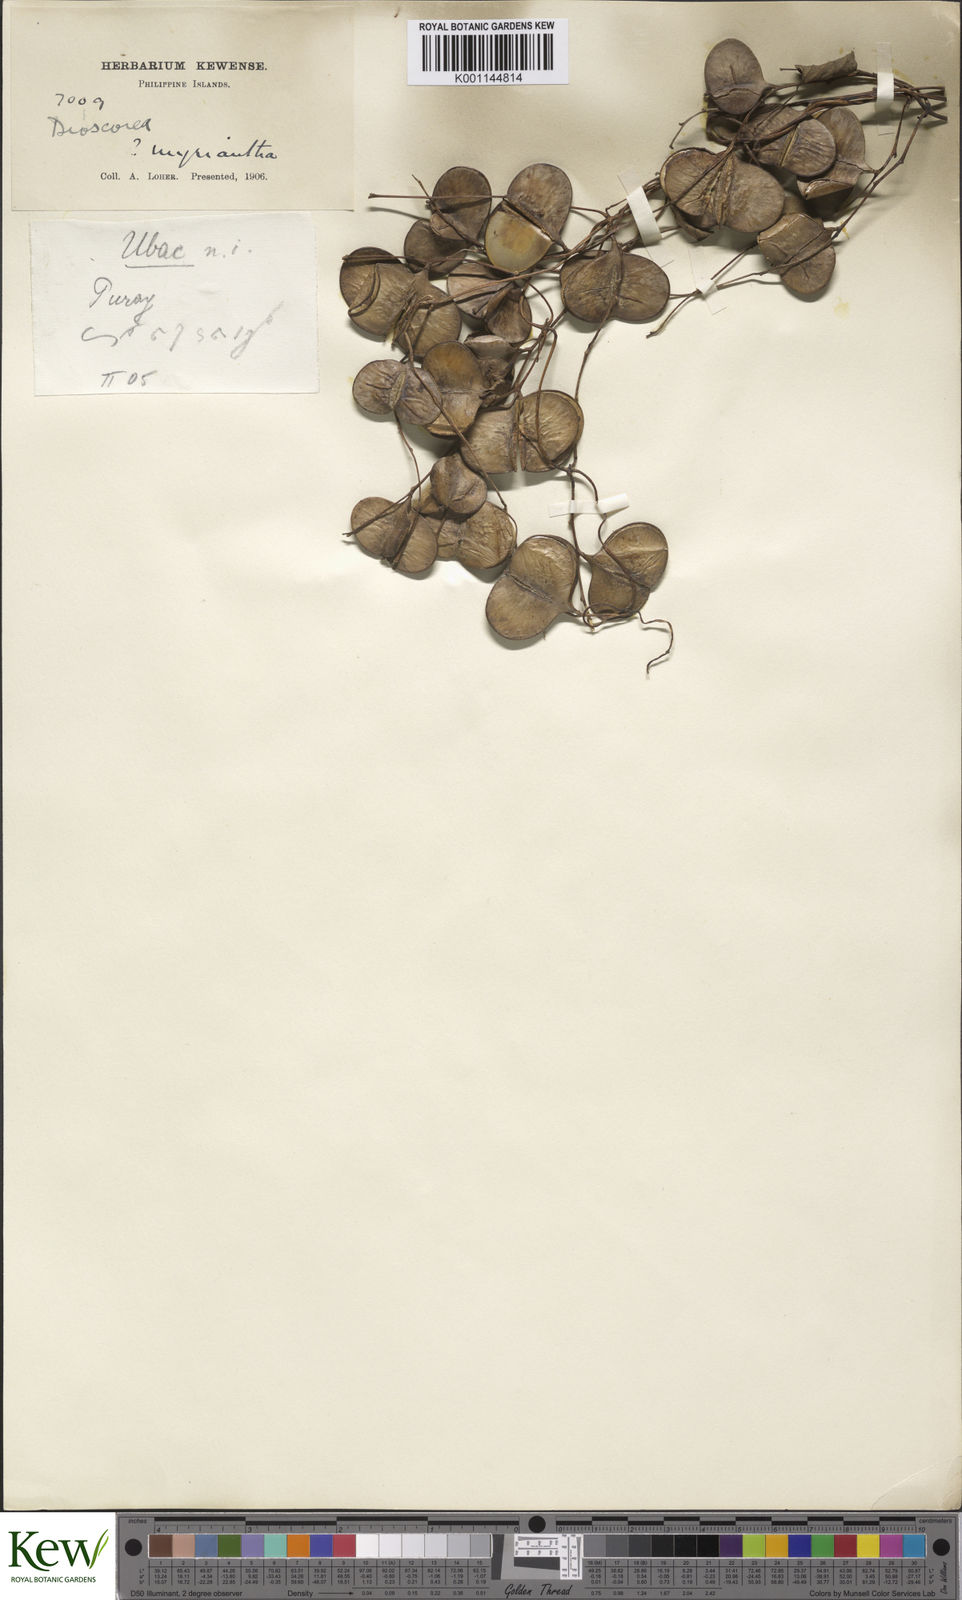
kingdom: Plantae
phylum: Tracheophyta
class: Liliopsida
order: Dioscoreales
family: Dioscoreaceae
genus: Dioscorea
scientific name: Dioscorea filiformis
